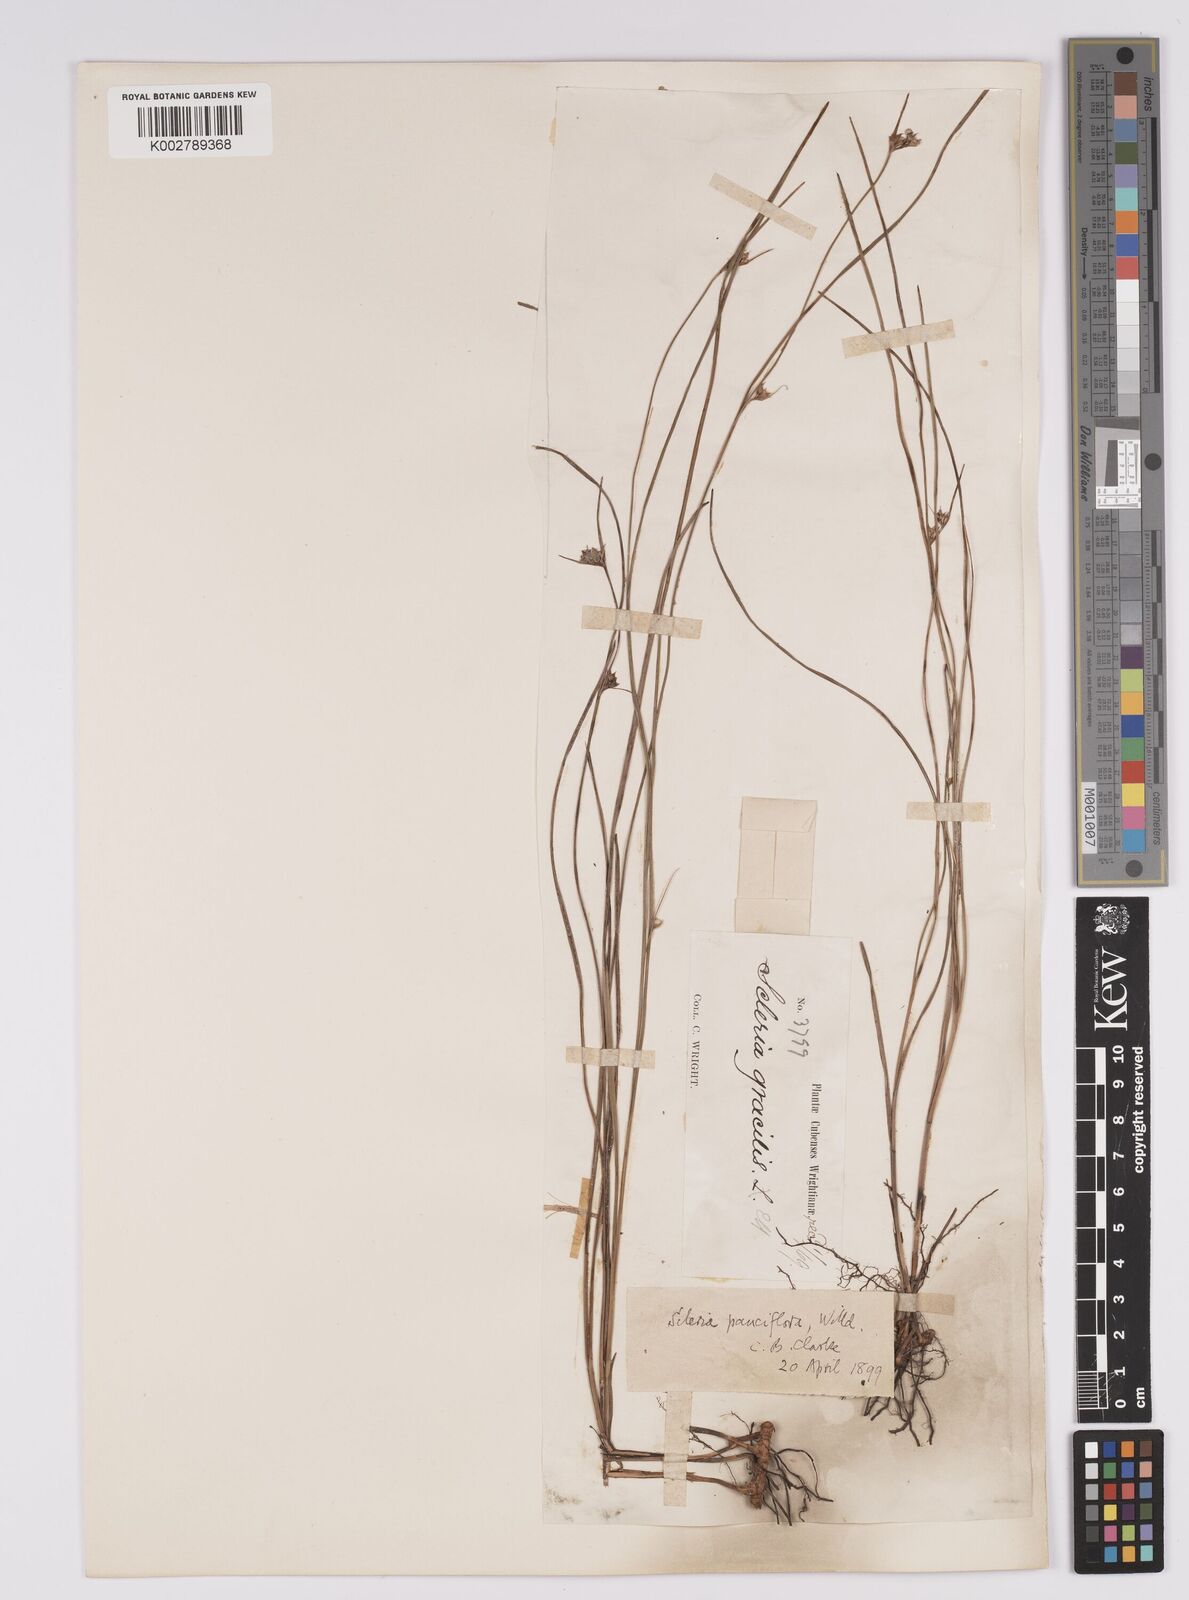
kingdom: Plantae
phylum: Tracheophyta
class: Liliopsida
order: Poales
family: Cyperaceae
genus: Scleria
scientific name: Scleria pauciflora
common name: Few-flowered nutrush
